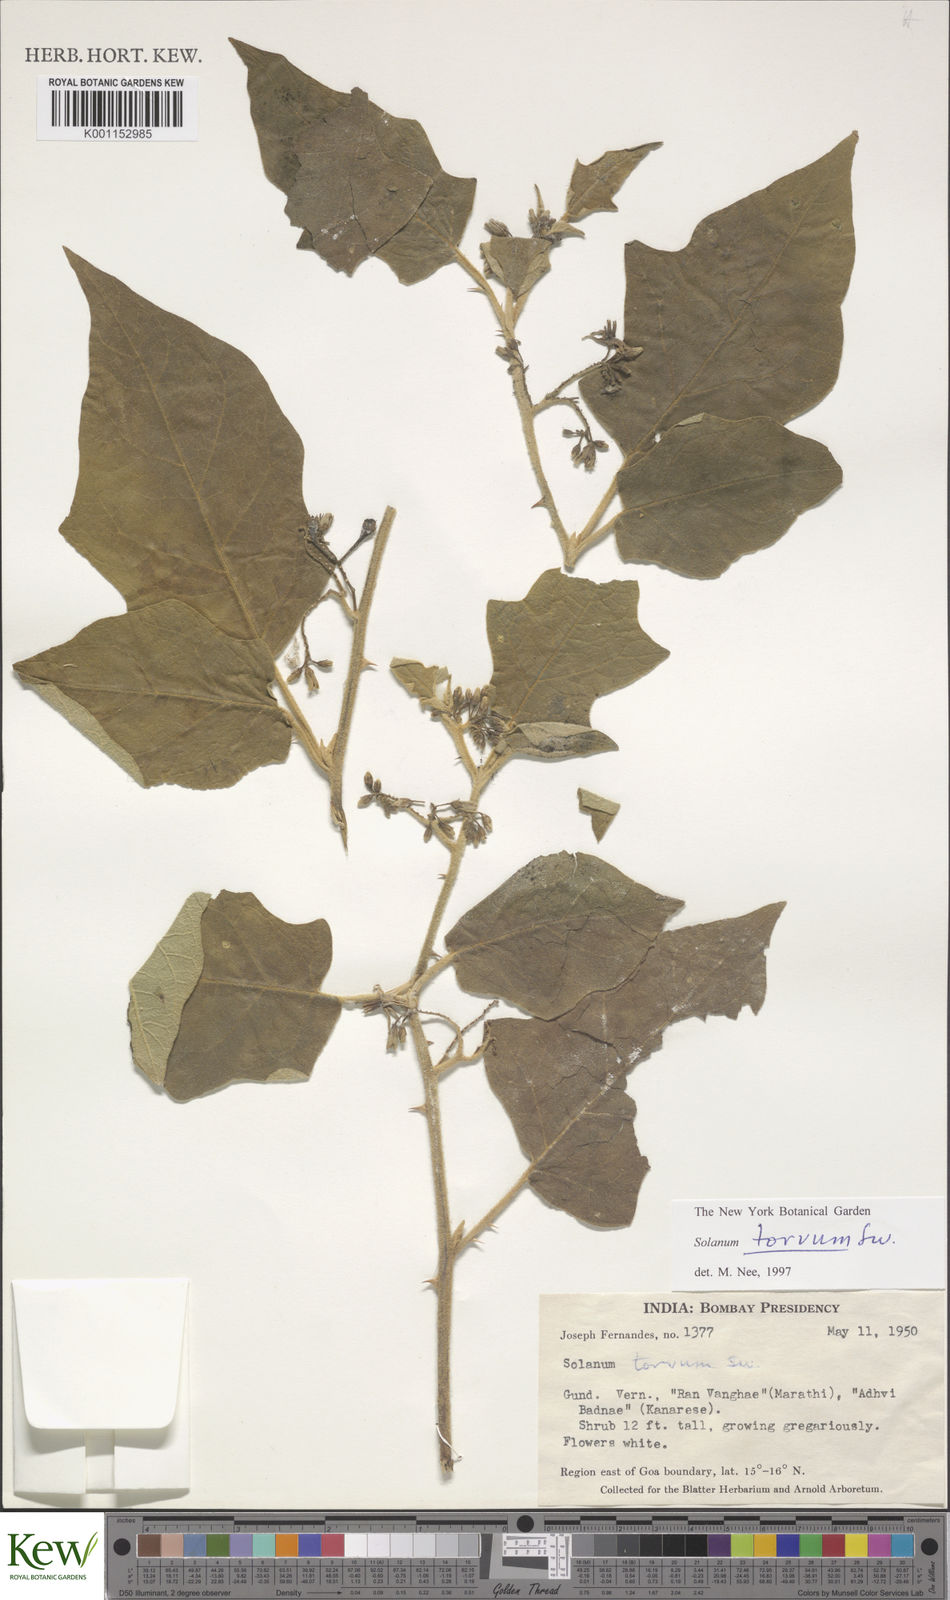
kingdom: Plantae
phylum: Tracheophyta
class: Magnoliopsida
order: Solanales
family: Solanaceae
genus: Solanum
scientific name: Solanum torvum
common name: Turkey berry
